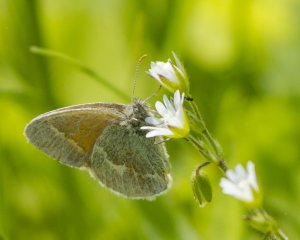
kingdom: Animalia
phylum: Arthropoda
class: Insecta
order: Lepidoptera
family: Nymphalidae
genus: Coenonympha
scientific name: Coenonympha tullia
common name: Large Heath
